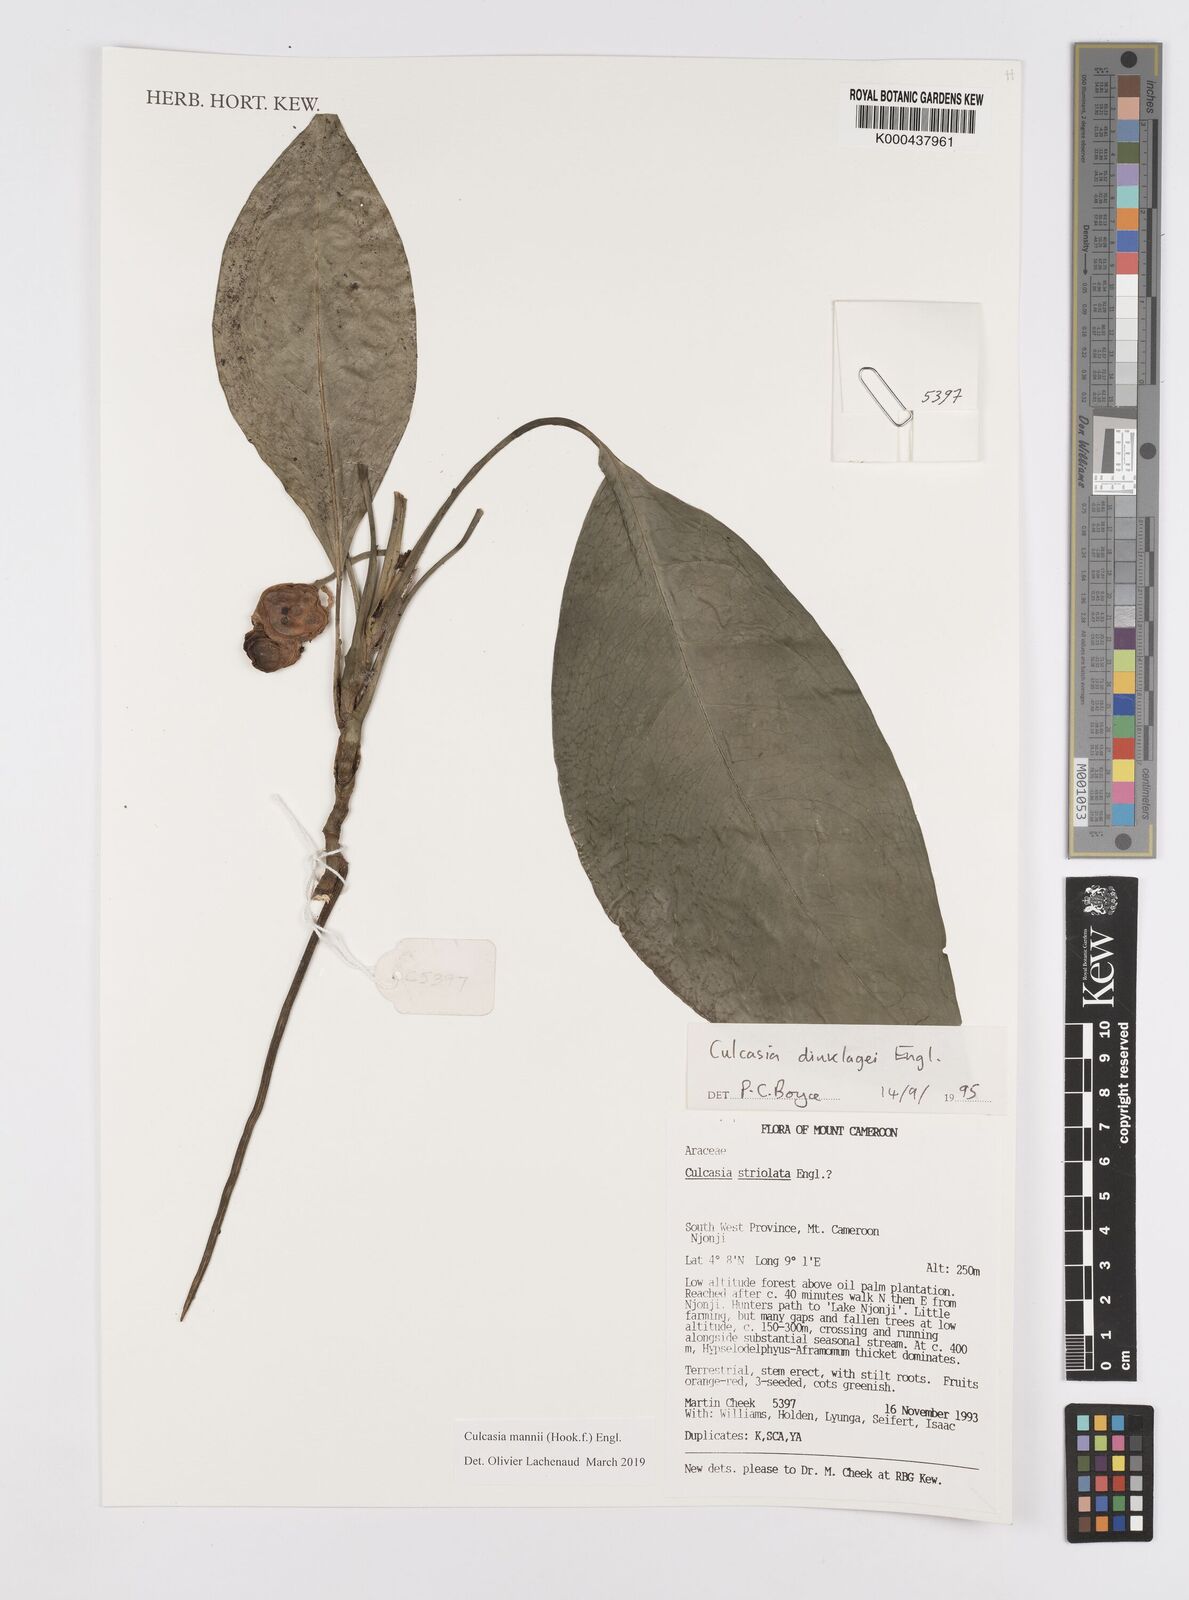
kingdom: Plantae
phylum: Tracheophyta
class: Liliopsida
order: Alismatales
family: Araceae
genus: Culcasia
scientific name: Culcasia mannii
